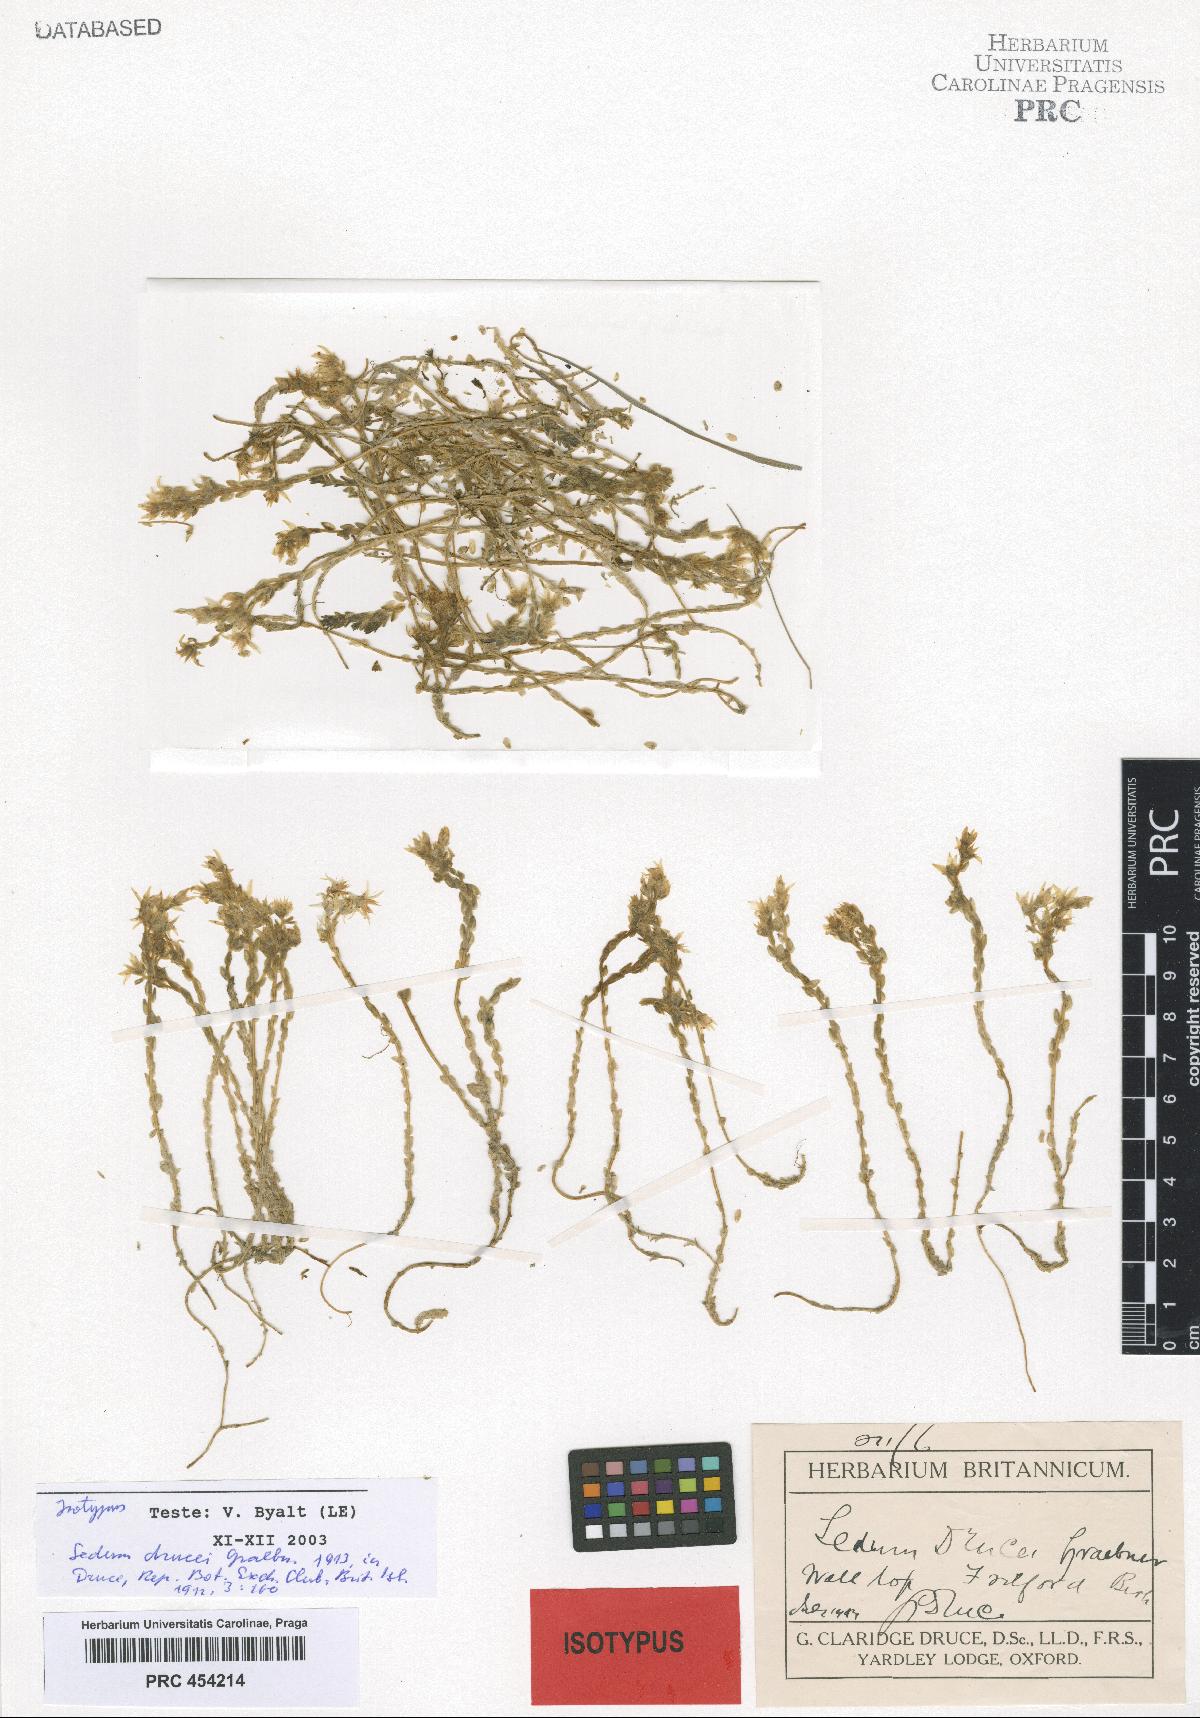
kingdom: Plantae
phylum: Tracheophyta
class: Magnoliopsida
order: Saxifragales
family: Crassulaceae
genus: Sedum
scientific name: Sedum acre
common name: Biting stonecrop
